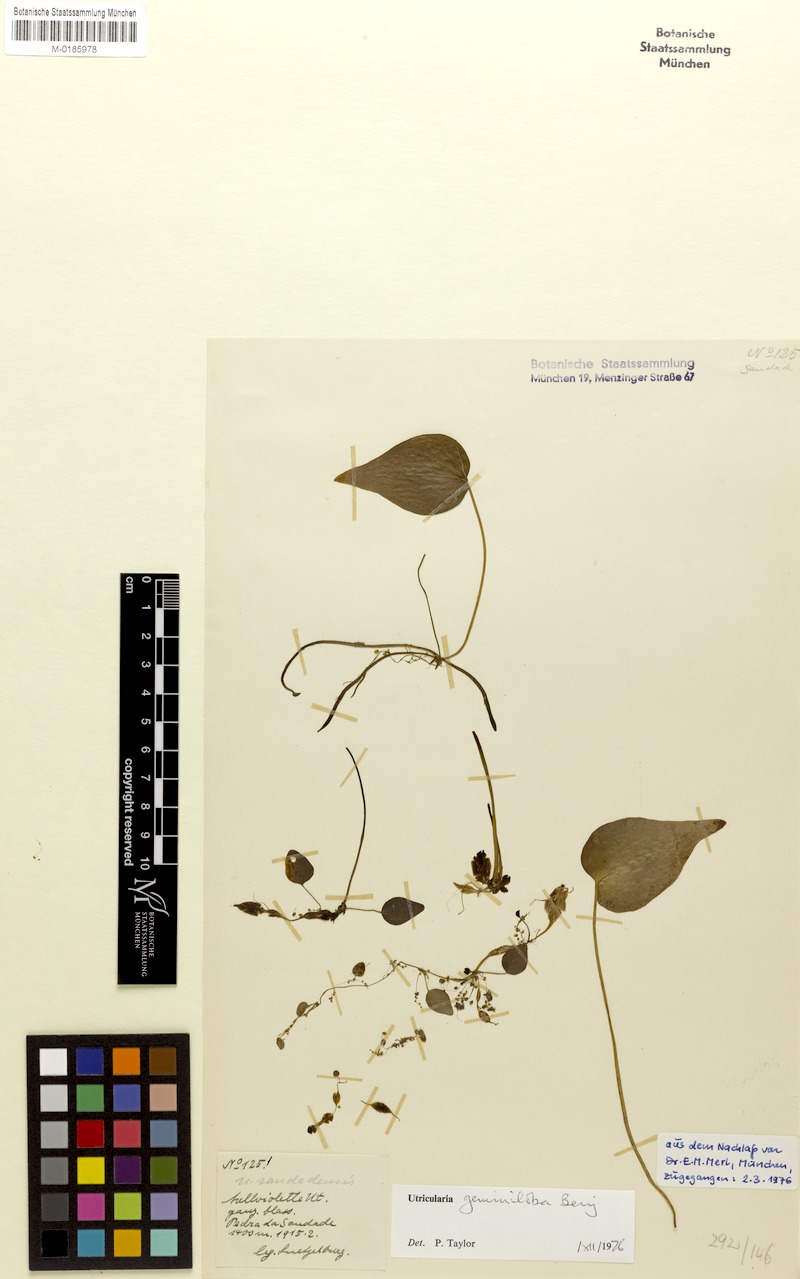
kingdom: Plantae
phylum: Tracheophyta
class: Magnoliopsida
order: Lamiales
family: Lentibulariaceae
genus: Utricularia
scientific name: Utricularia geminiloba
